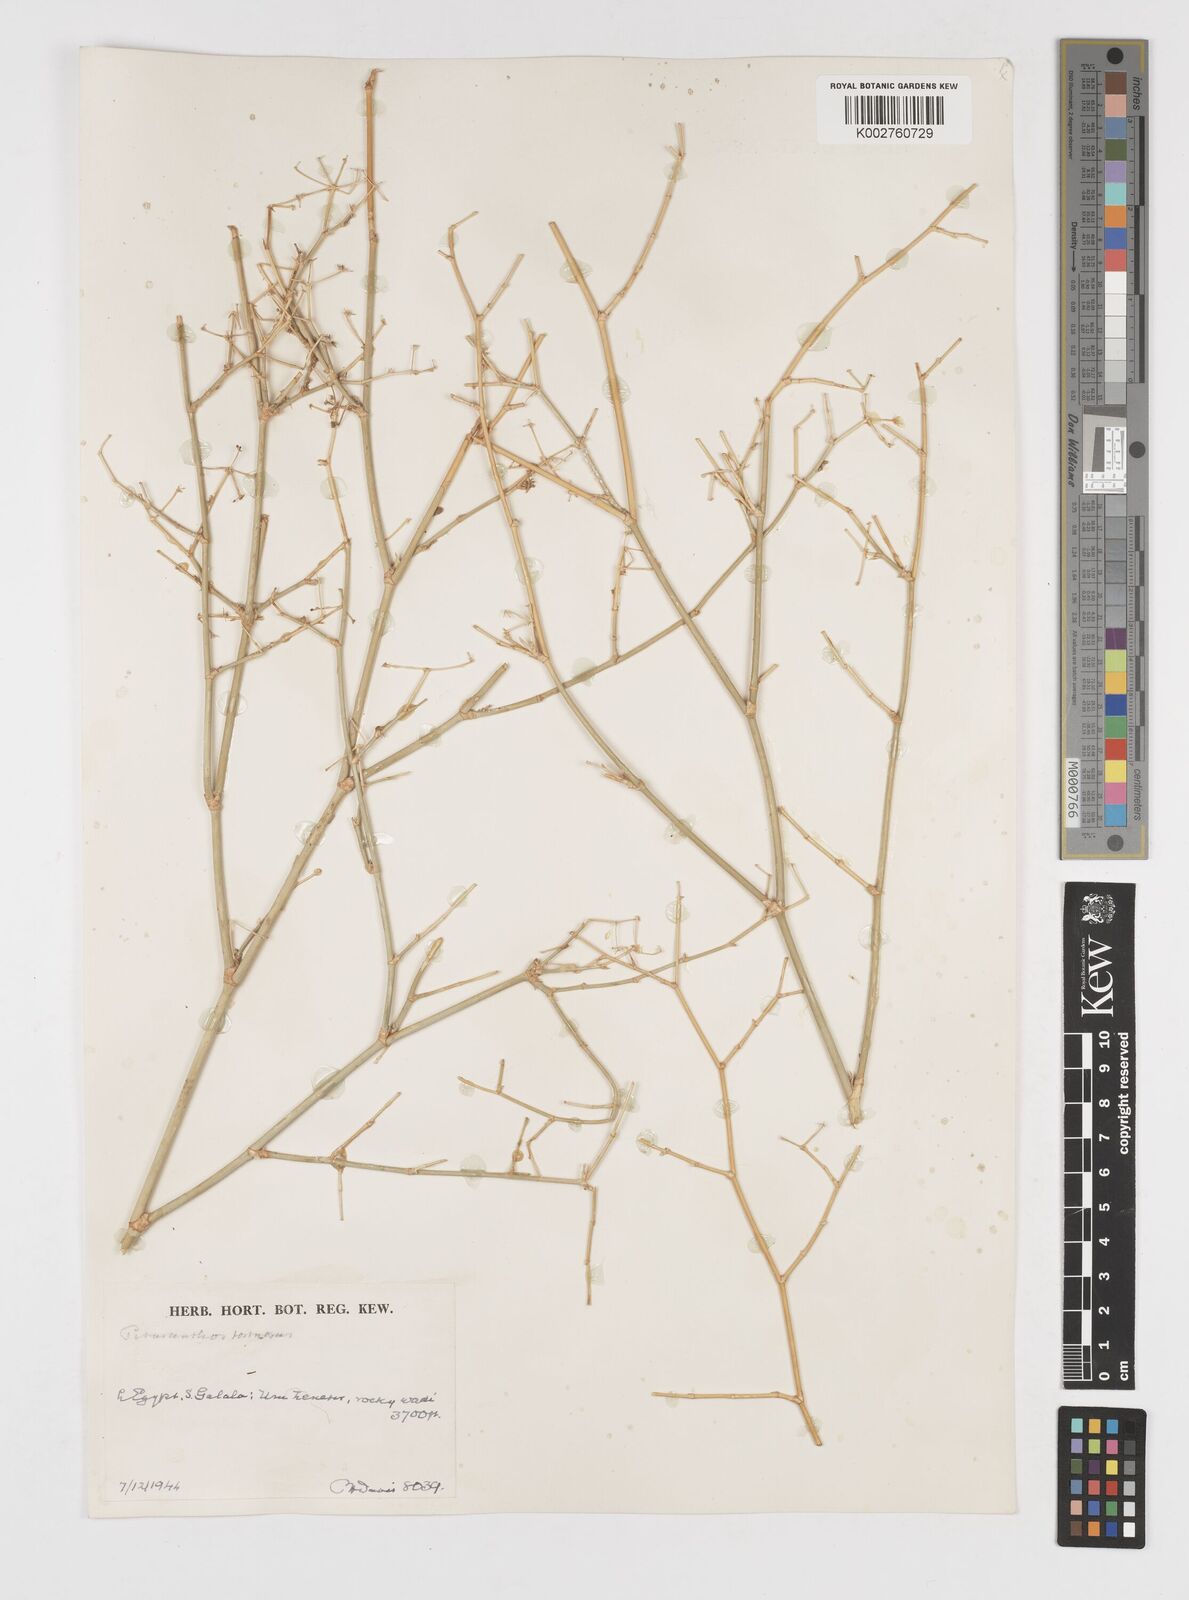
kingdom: Plantae
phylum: Tracheophyta
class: Magnoliopsida
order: Apiales
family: Apiaceae
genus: Deverra
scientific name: Deverra tortuosa
